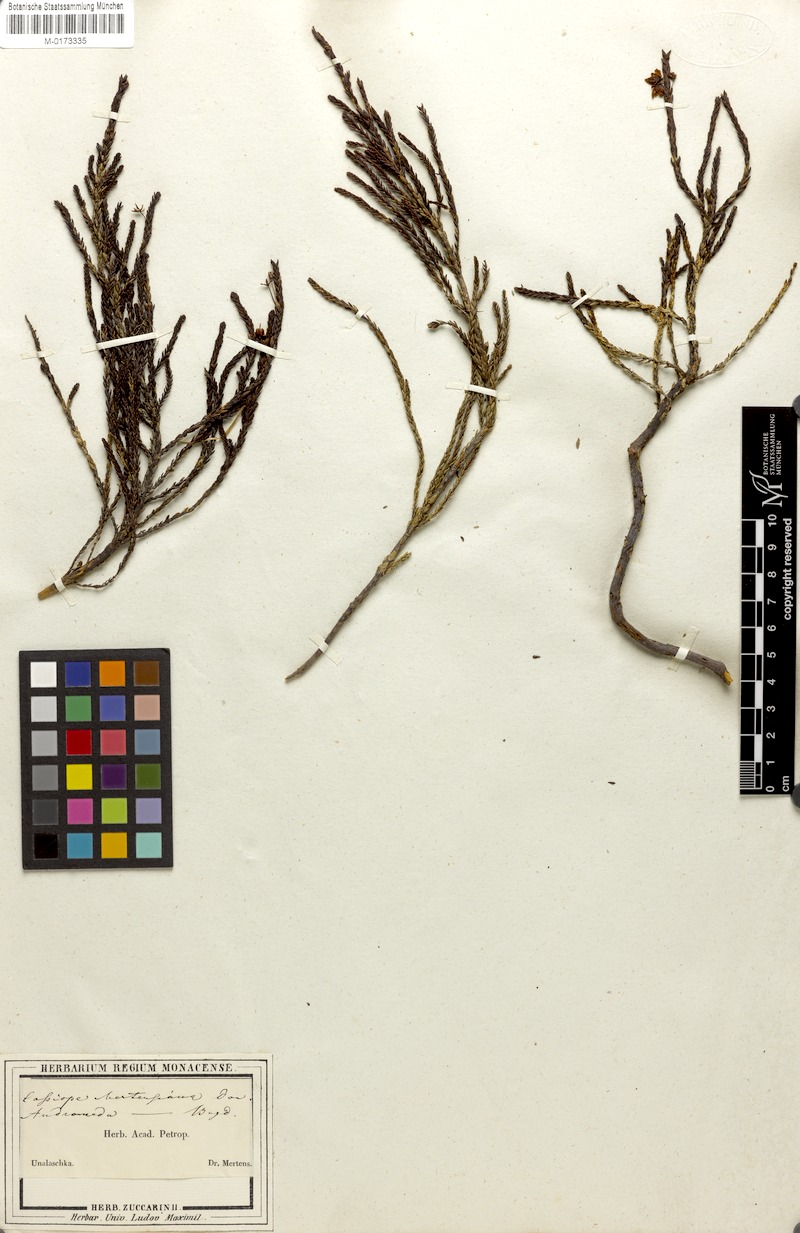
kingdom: Plantae
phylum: Tracheophyta
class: Magnoliopsida
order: Ericales
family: Ericaceae
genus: Cassiope
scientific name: Cassiope mertensiana
